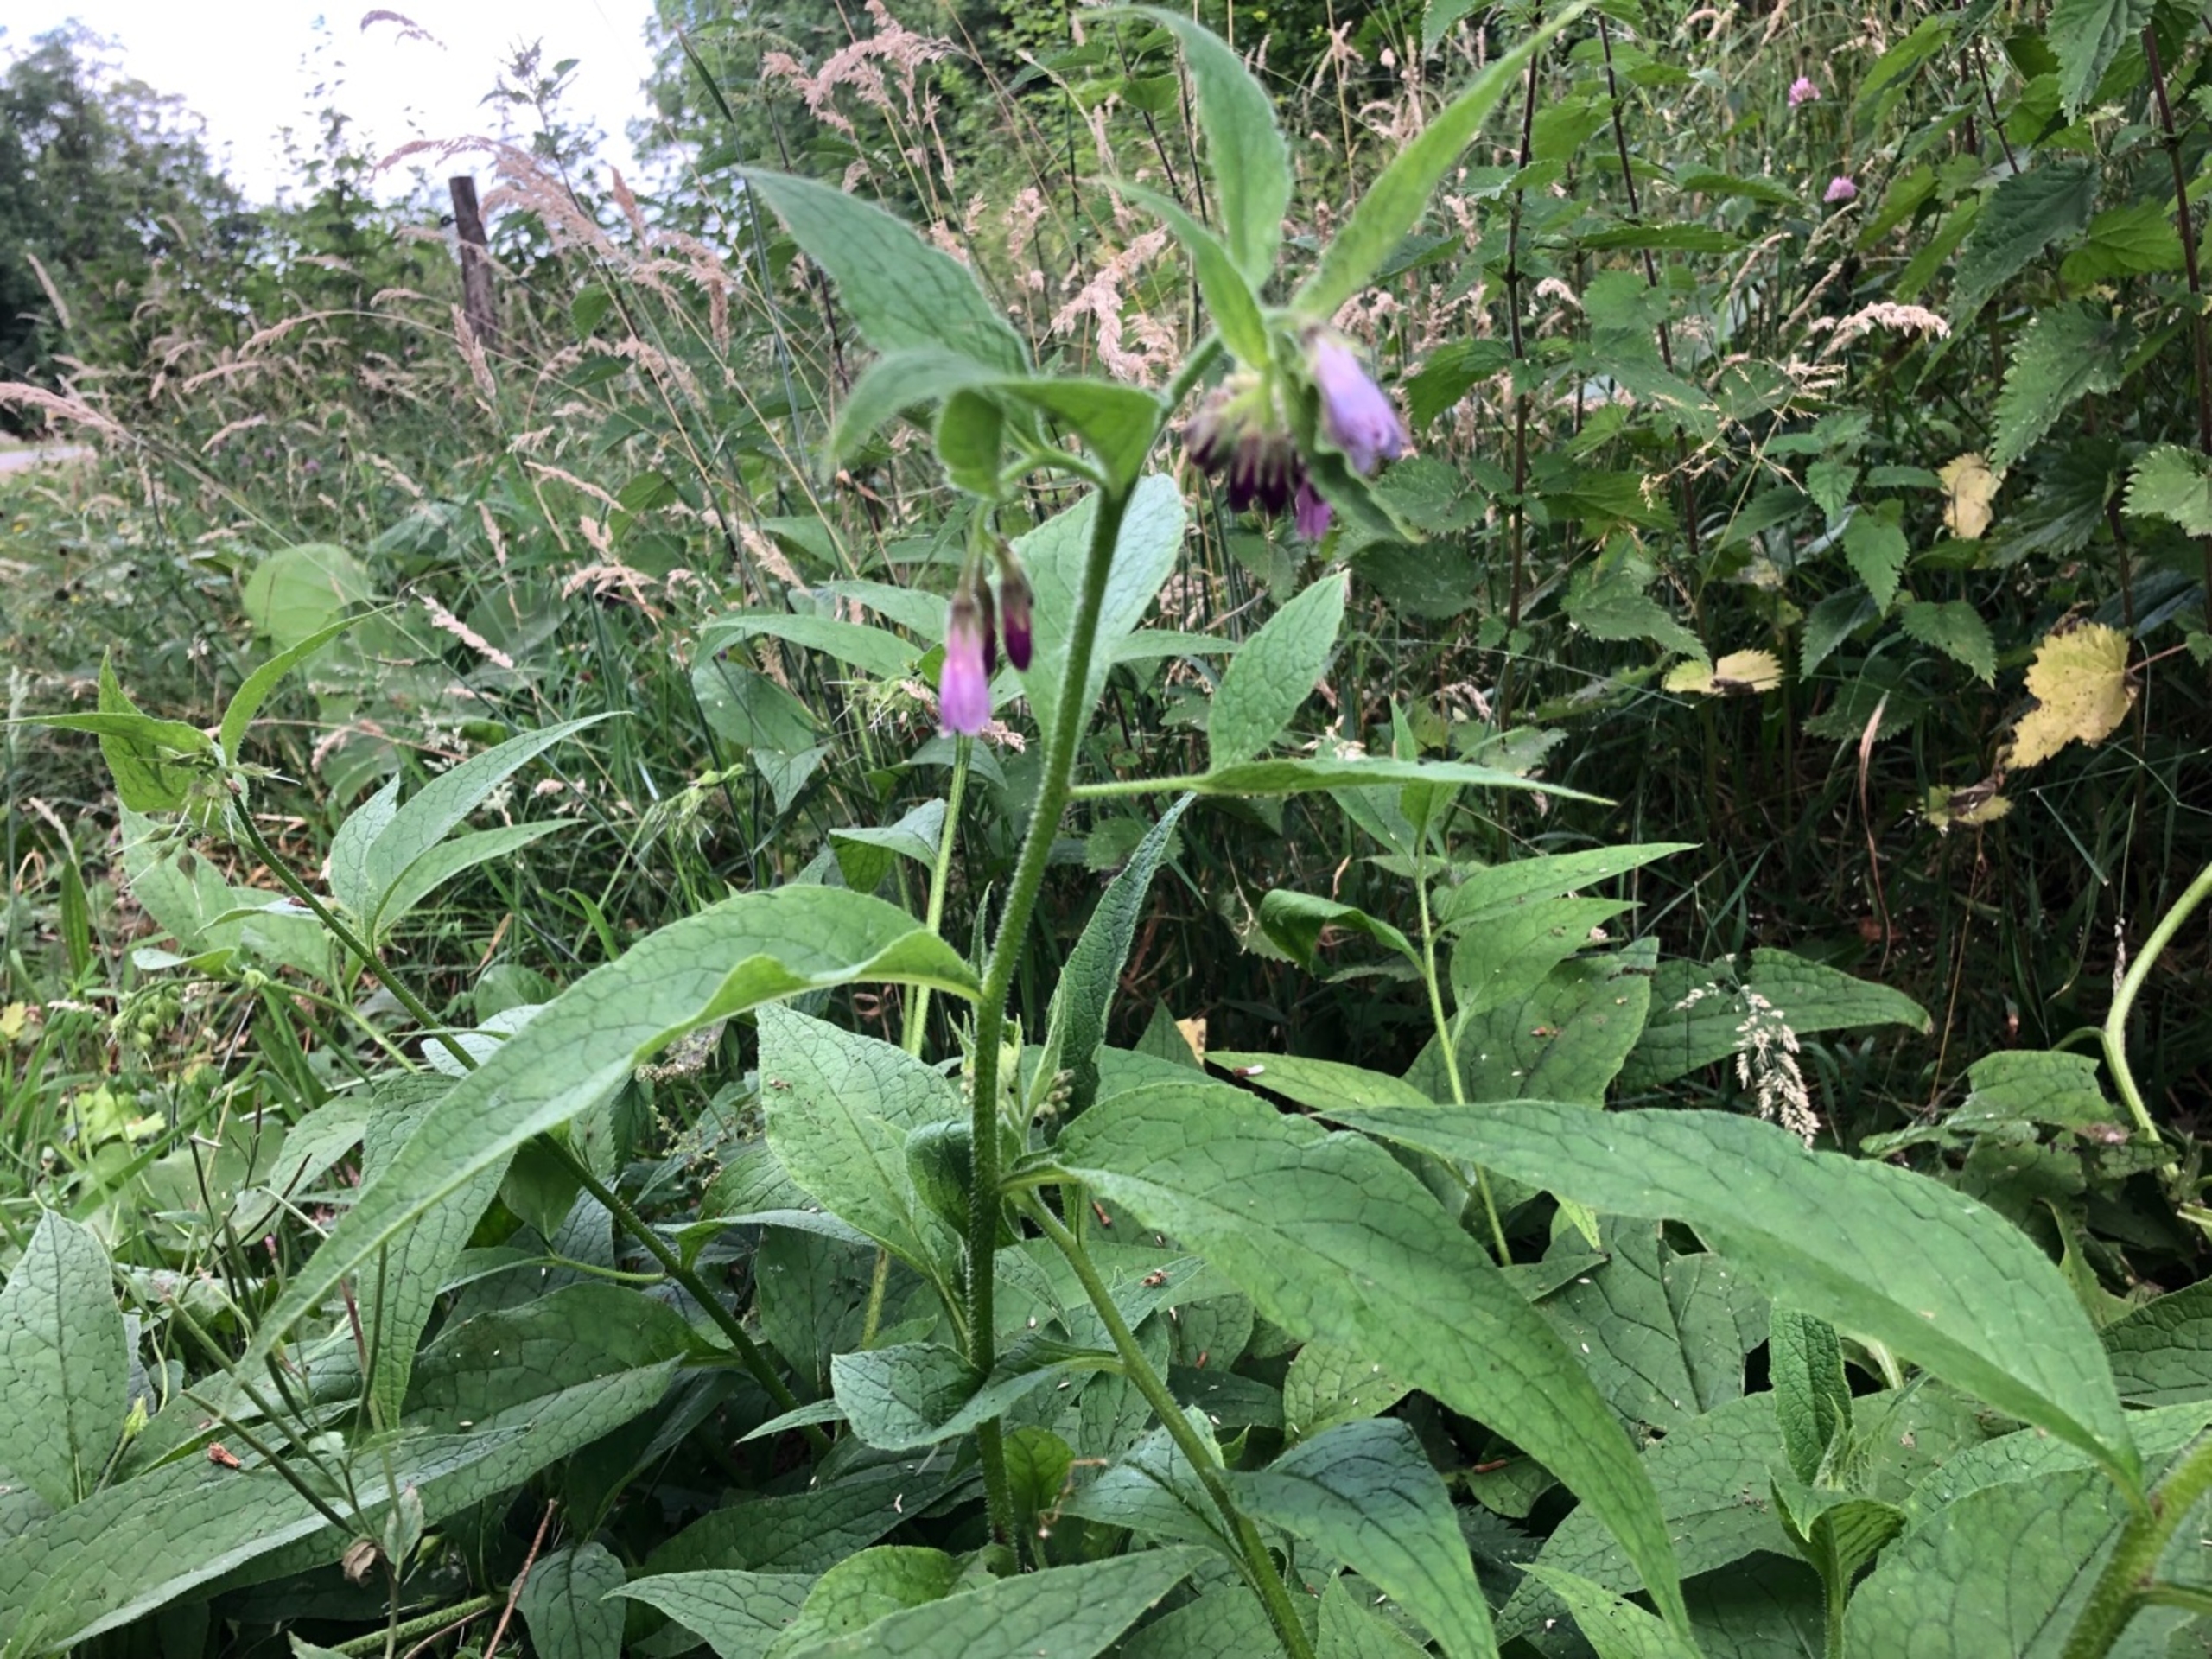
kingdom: Plantae
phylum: Tracheophyta
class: Magnoliopsida
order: Boraginales
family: Boraginaceae
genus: Symphytum
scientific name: Symphytum uplandicum
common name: Foder-kulsukker
